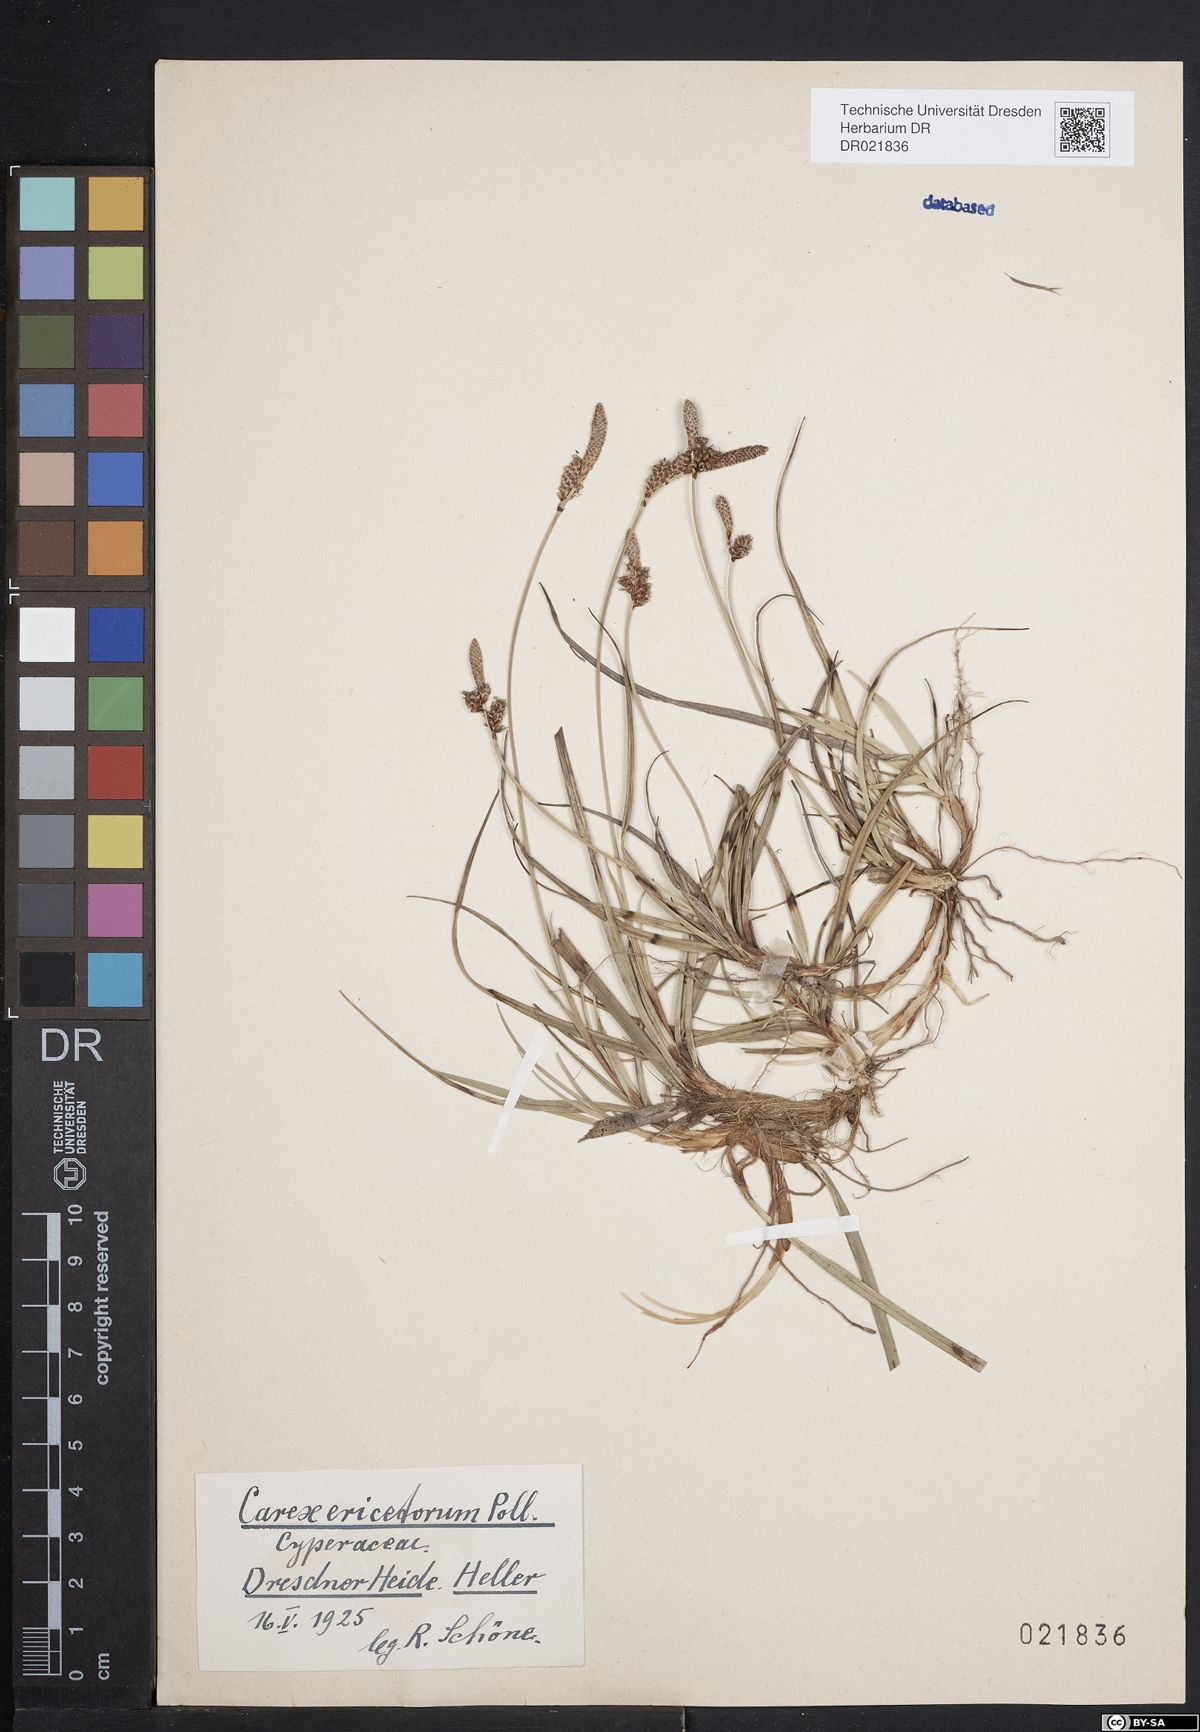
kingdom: Plantae
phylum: Tracheophyta
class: Liliopsida
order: Poales
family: Cyperaceae
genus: Carex
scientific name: Carex ericetorum
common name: Rare spring-sedge
